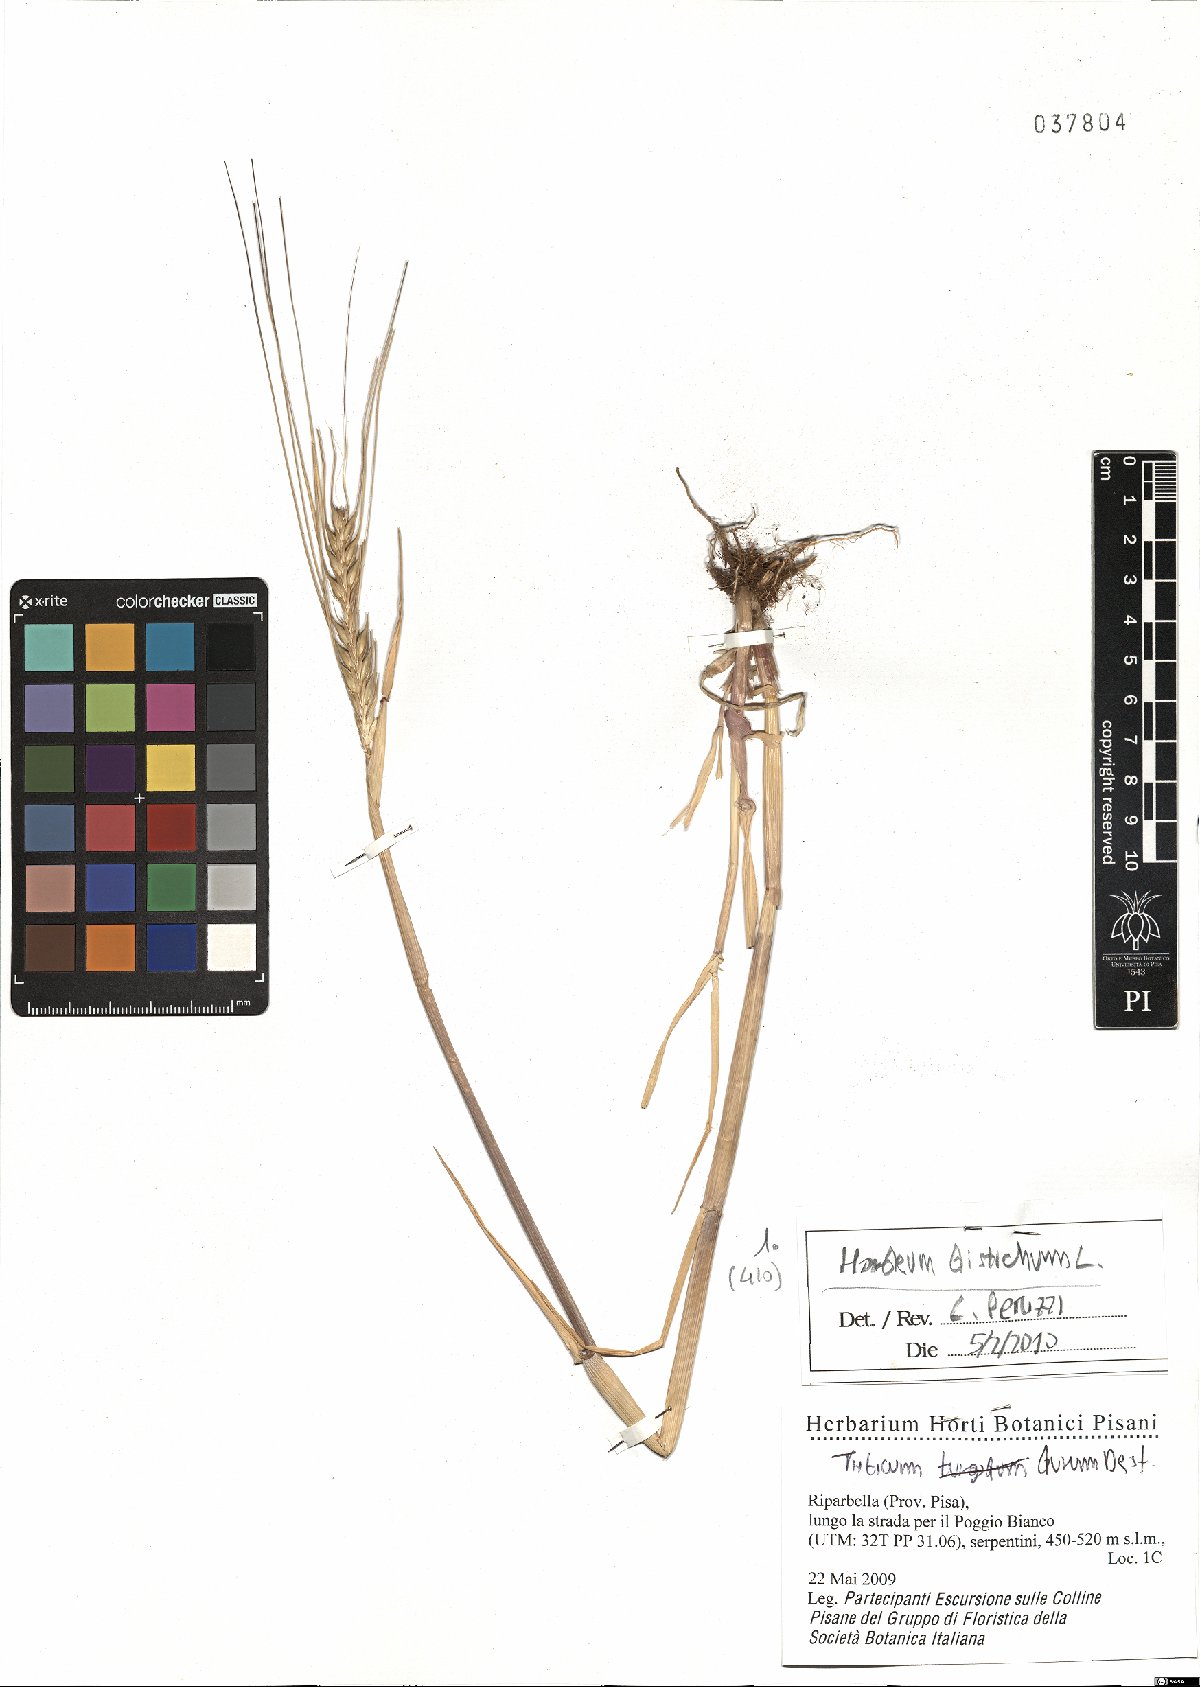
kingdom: Plantae
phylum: Tracheophyta
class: Liliopsida
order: Poales
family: Poaceae
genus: Hordeum
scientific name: Hordeum distichon
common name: Two-rowed barley
